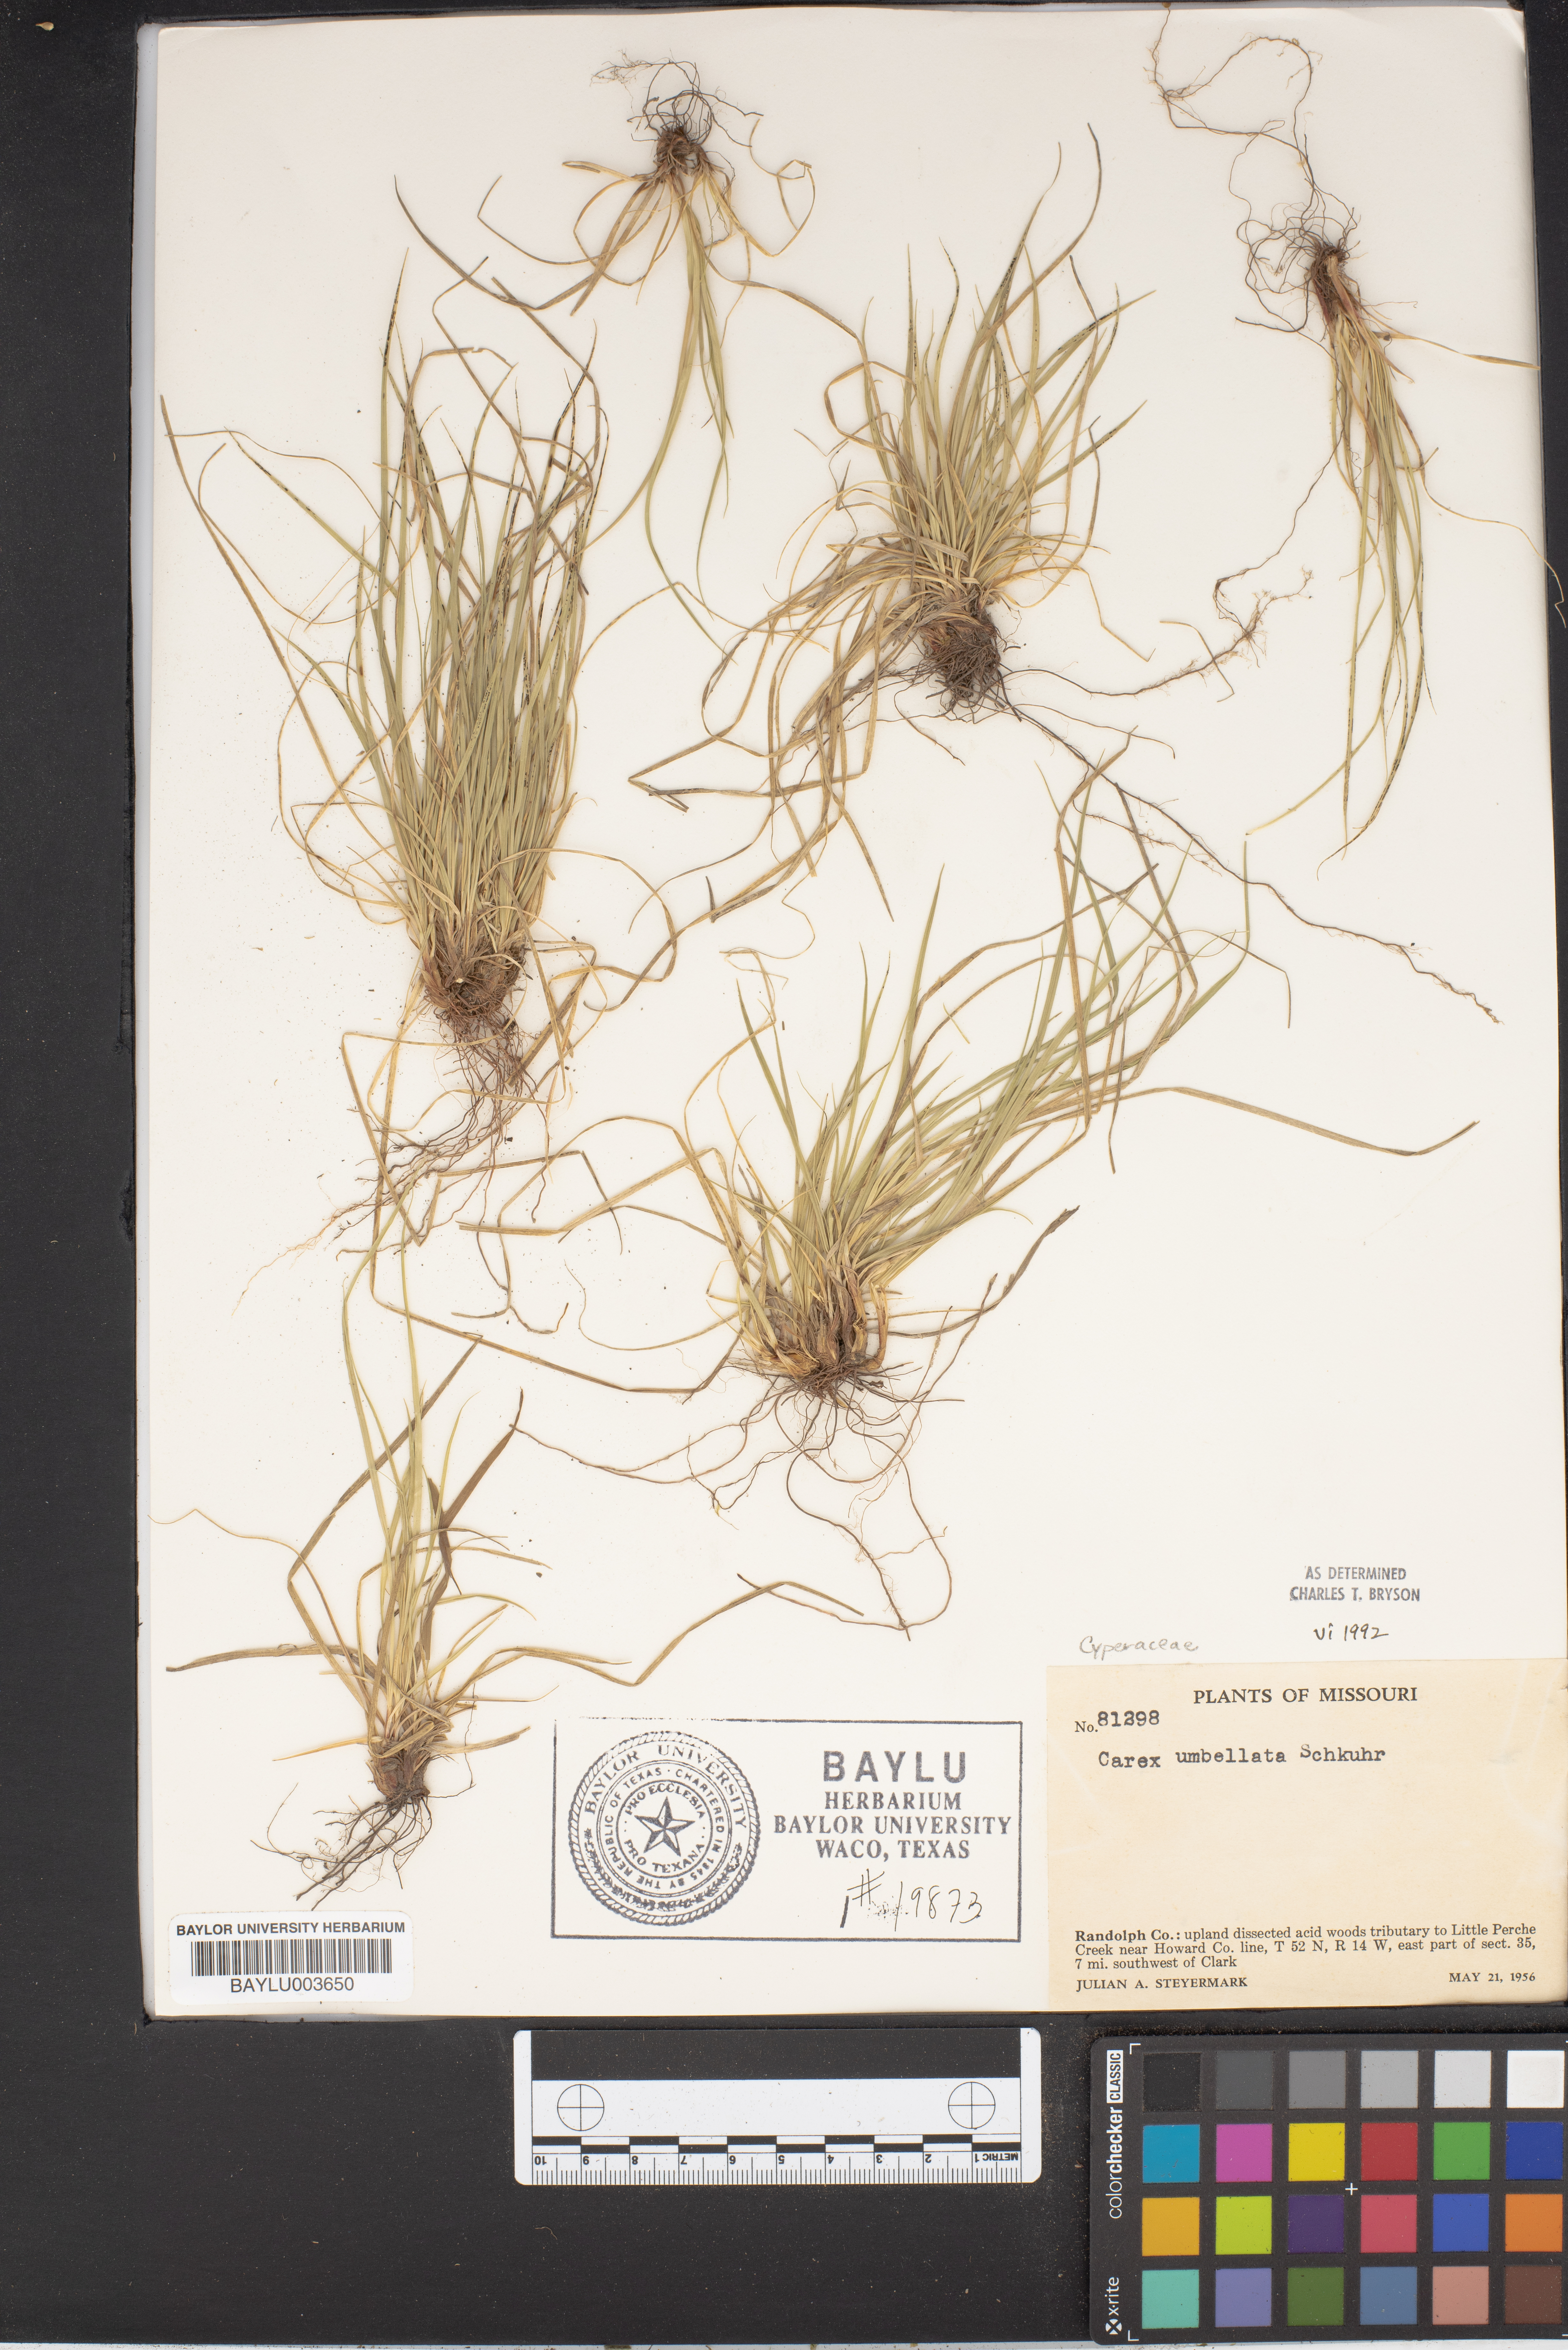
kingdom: Plantae
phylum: Tracheophyta
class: Liliopsida
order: Poales
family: Cyperaceae
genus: Carex
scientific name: Carex umbellata
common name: Early oak sedge
